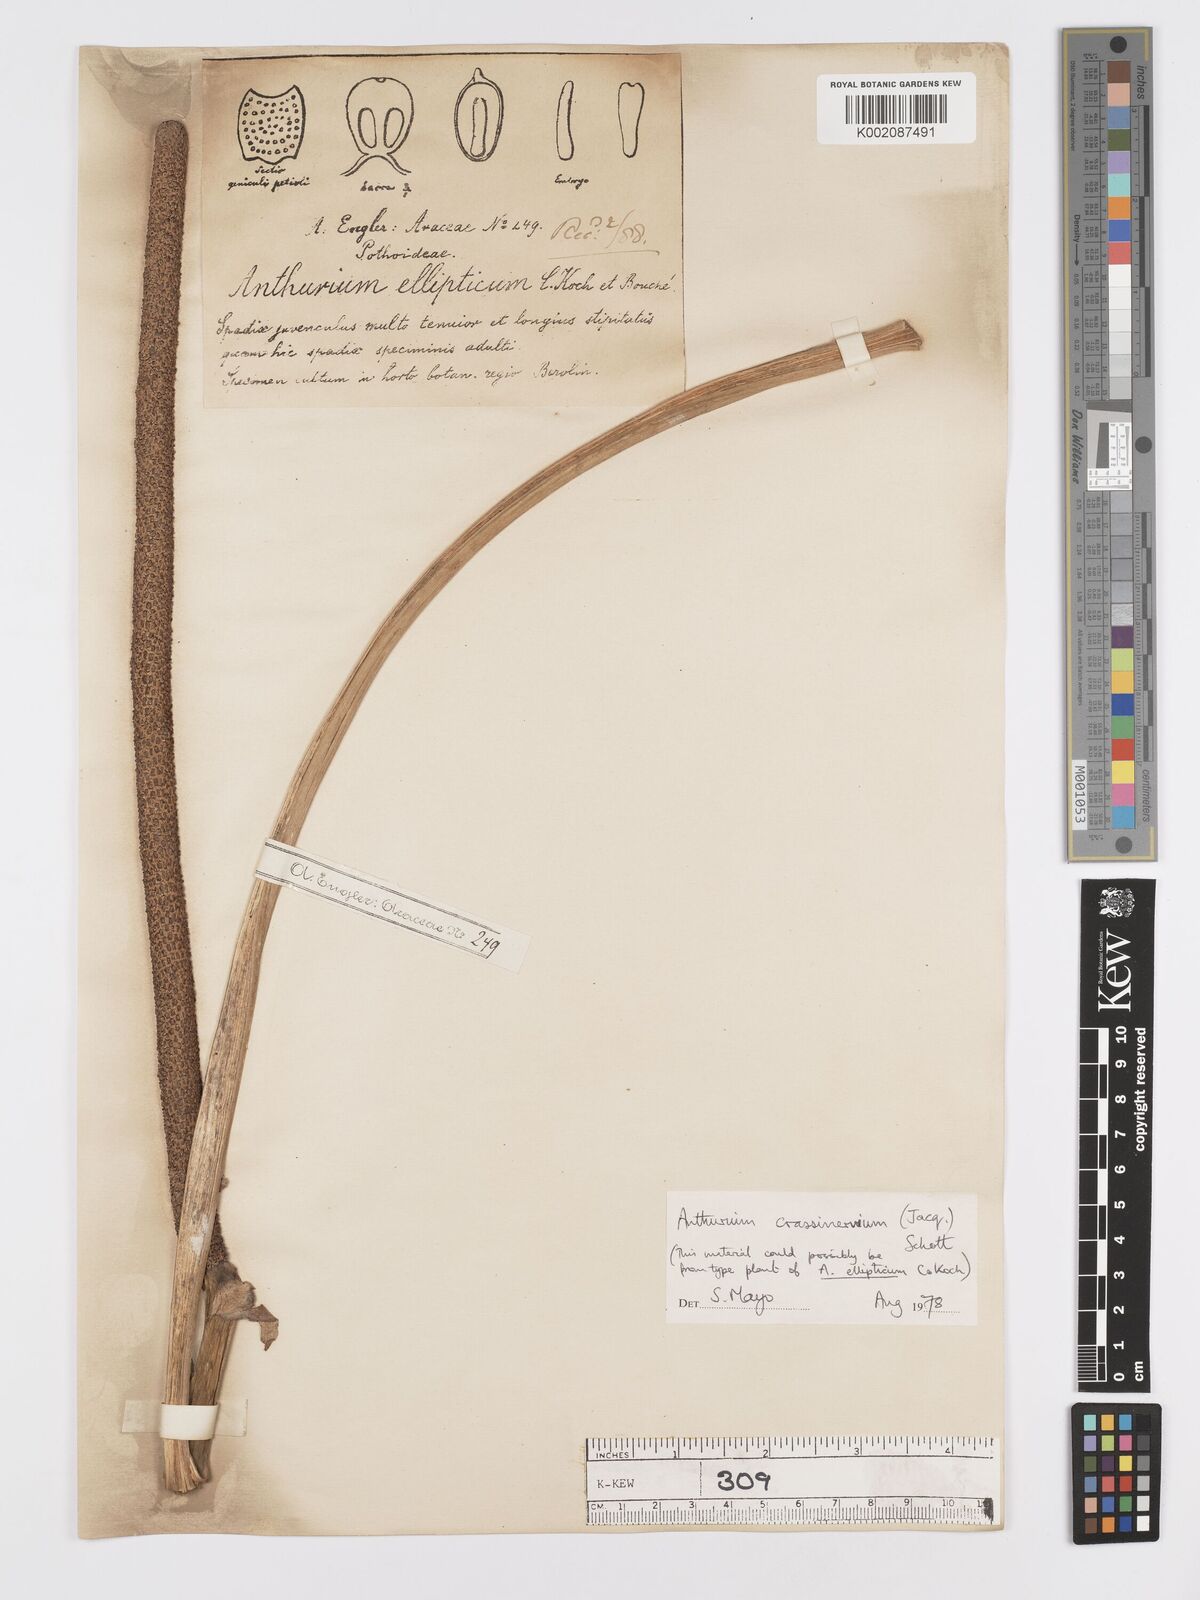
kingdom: Plantae
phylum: Tracheophyta
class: Liliopsida
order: Alismatales
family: Araceae
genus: Anthurium
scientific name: Anthurium crassinervium
